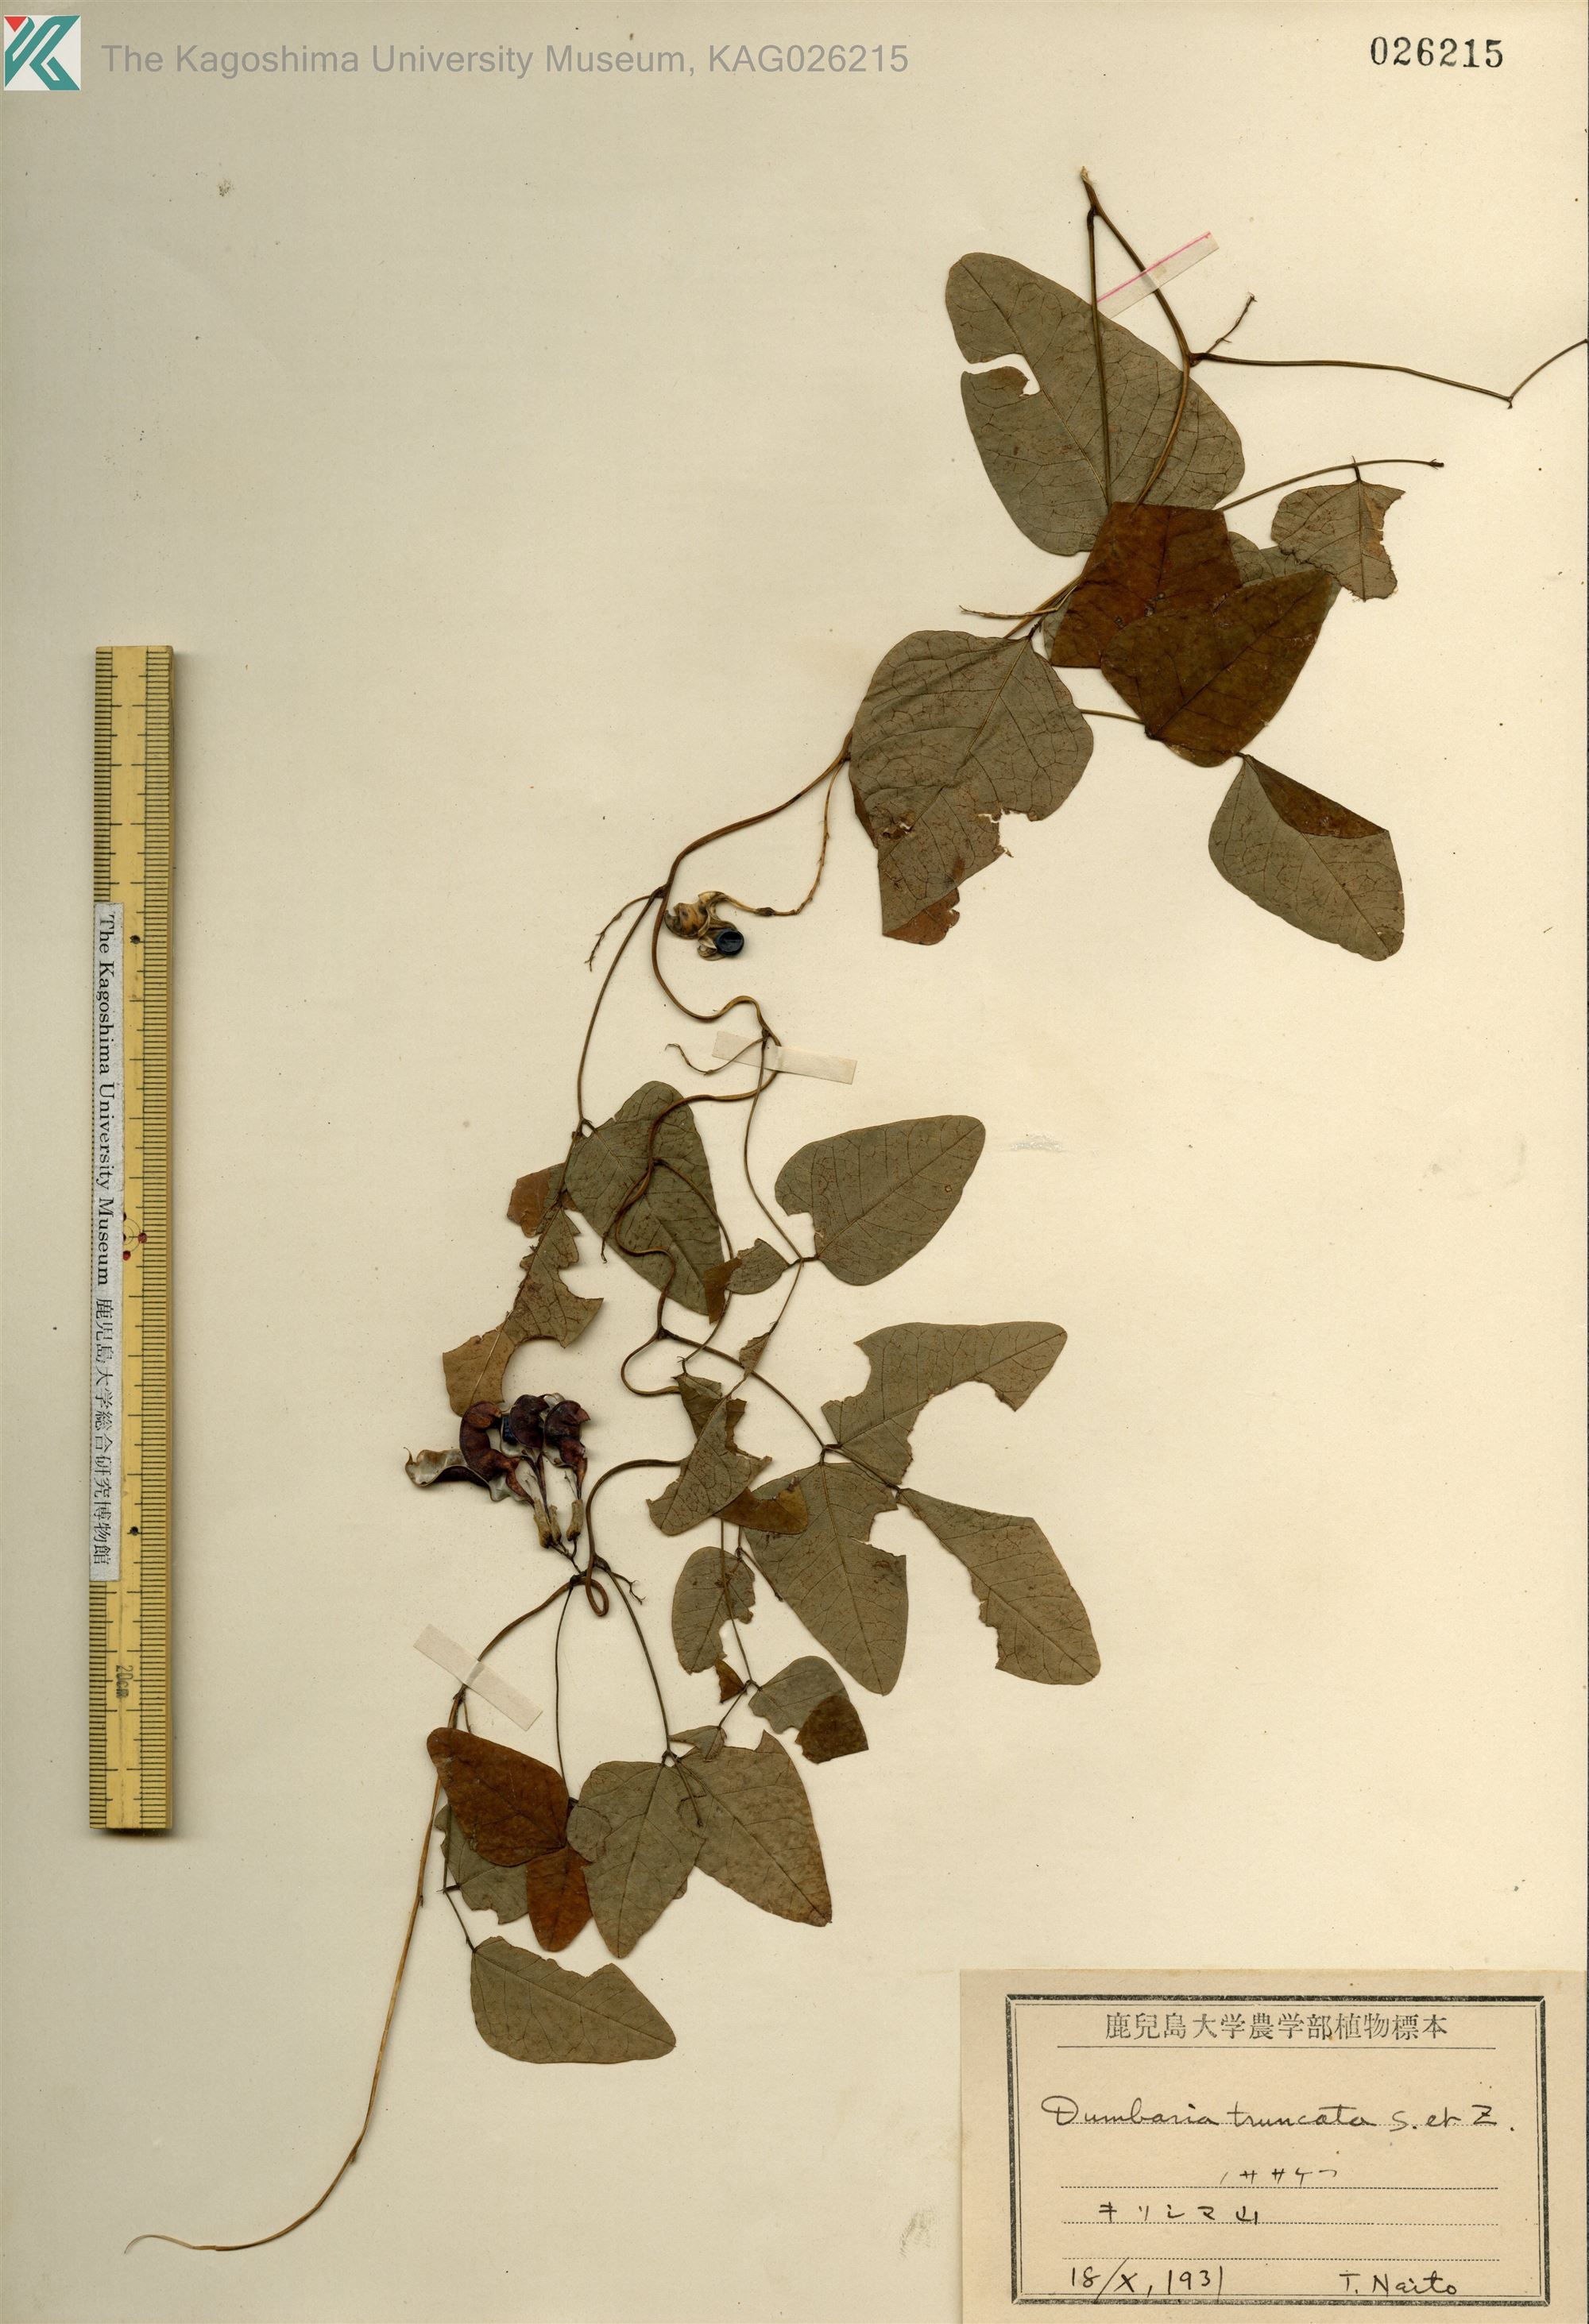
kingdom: Plantae
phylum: Tracheophyta
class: Magnoliopsida
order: Fabales
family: Fabaceae
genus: Dumasia
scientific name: Dumasia truncata
